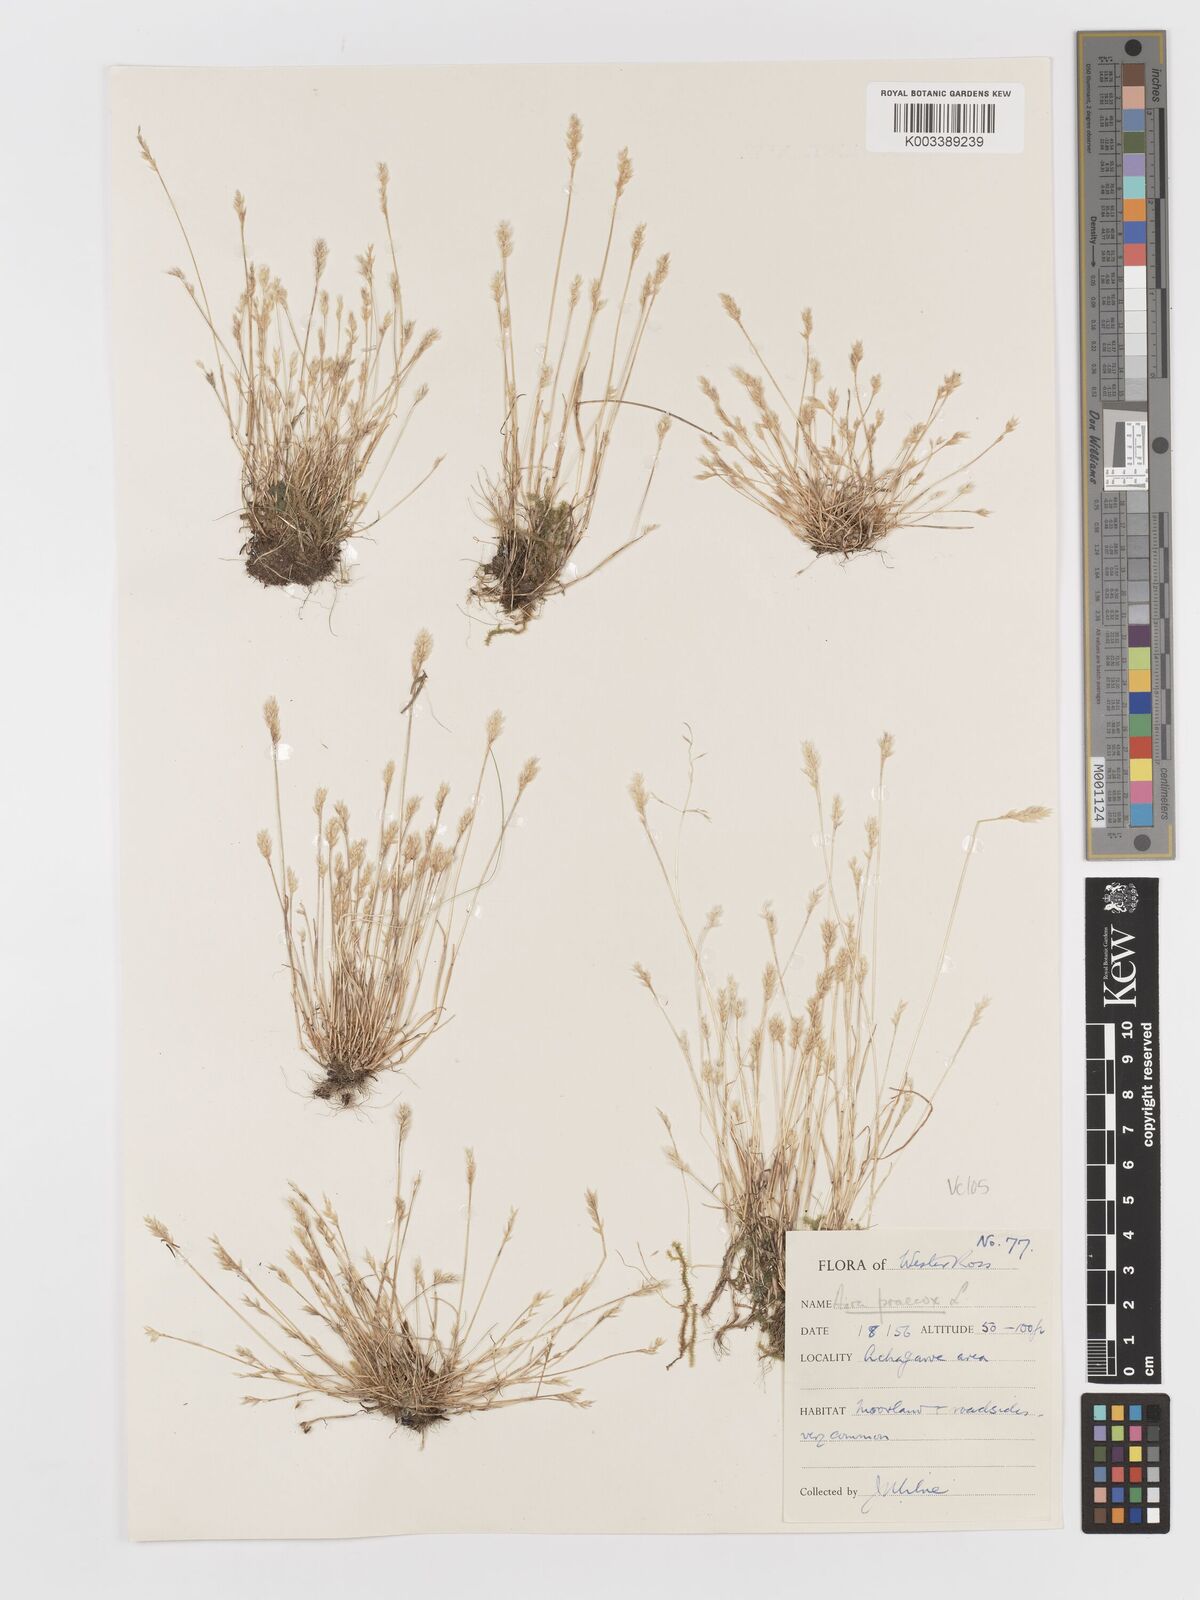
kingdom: Plantae
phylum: Tracheophyta
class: Liliopsida
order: Poales
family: Poaceae
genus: Aira
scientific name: Aira praecox
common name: Early hair-grass
